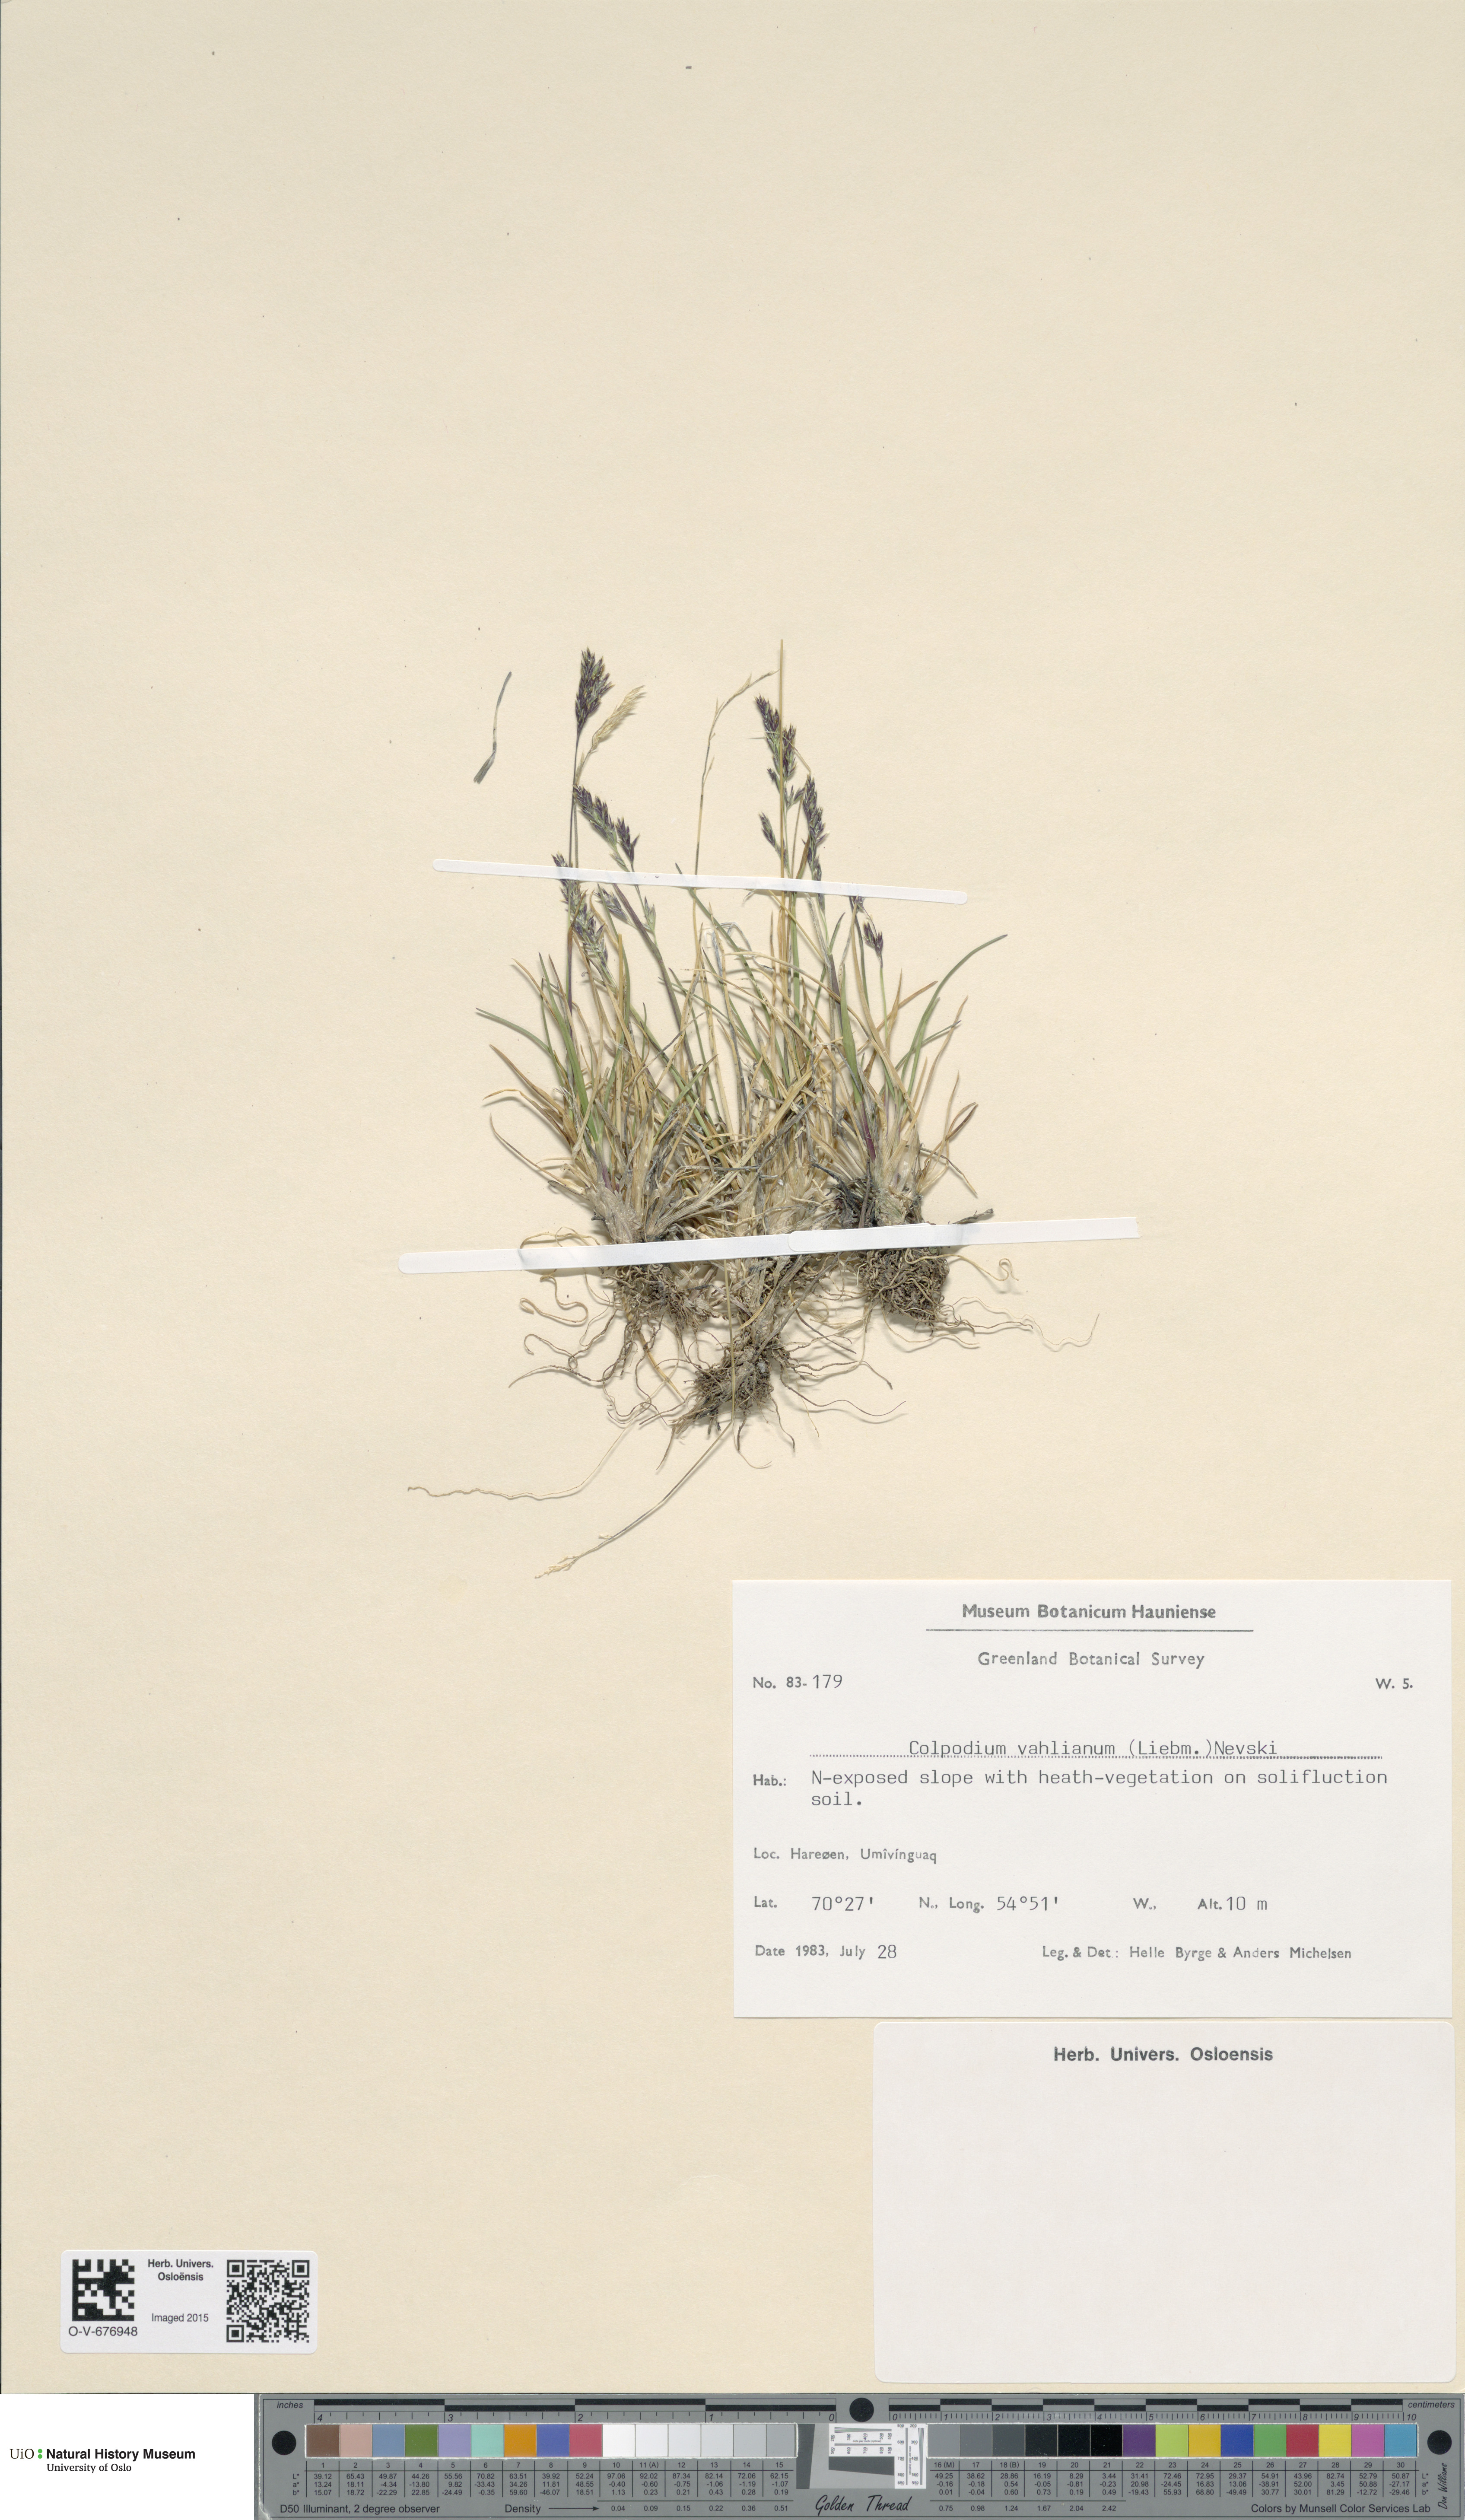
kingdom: Plantae
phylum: Tracheophyta
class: Liliopsida
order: Poales
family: Poaceae
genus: Puccinellia
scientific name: Puccinellia vahliana
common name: Vahl's alkaligrass
